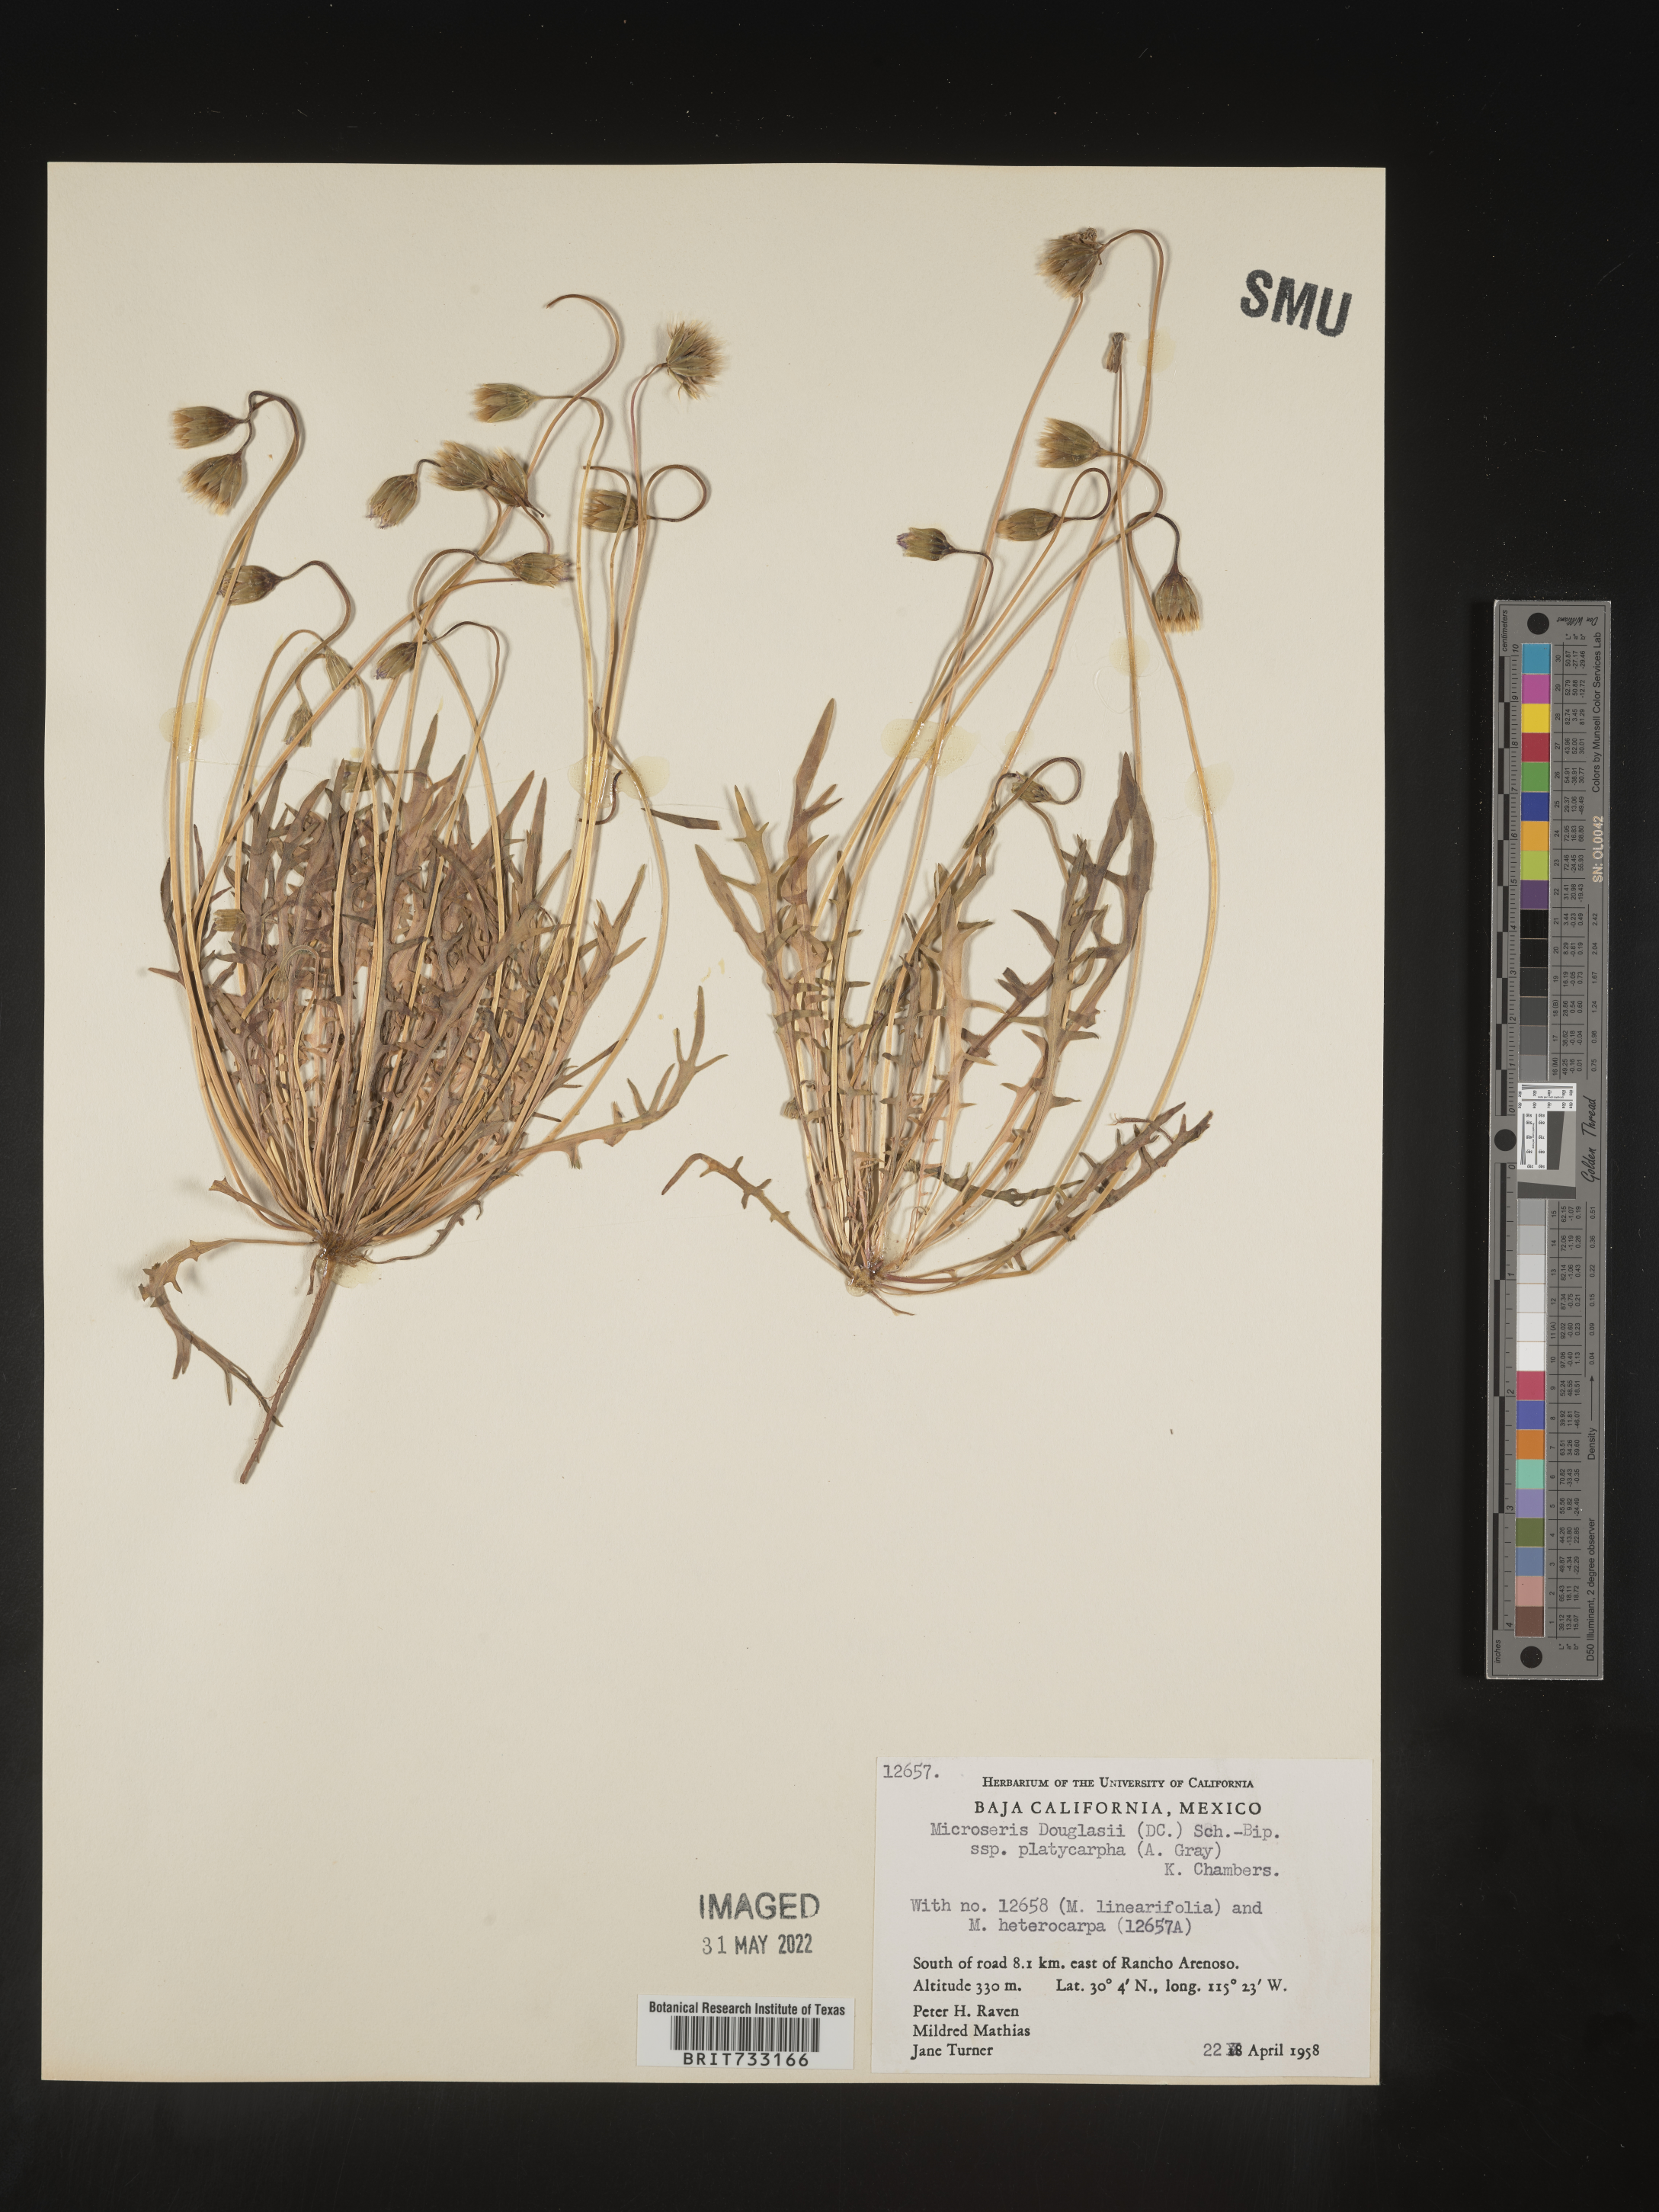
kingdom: Plantae
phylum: Tracheophyta
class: Magnoliopsida
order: Asterales
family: Asteraceae
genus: Microseris
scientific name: Microseris douglasii
